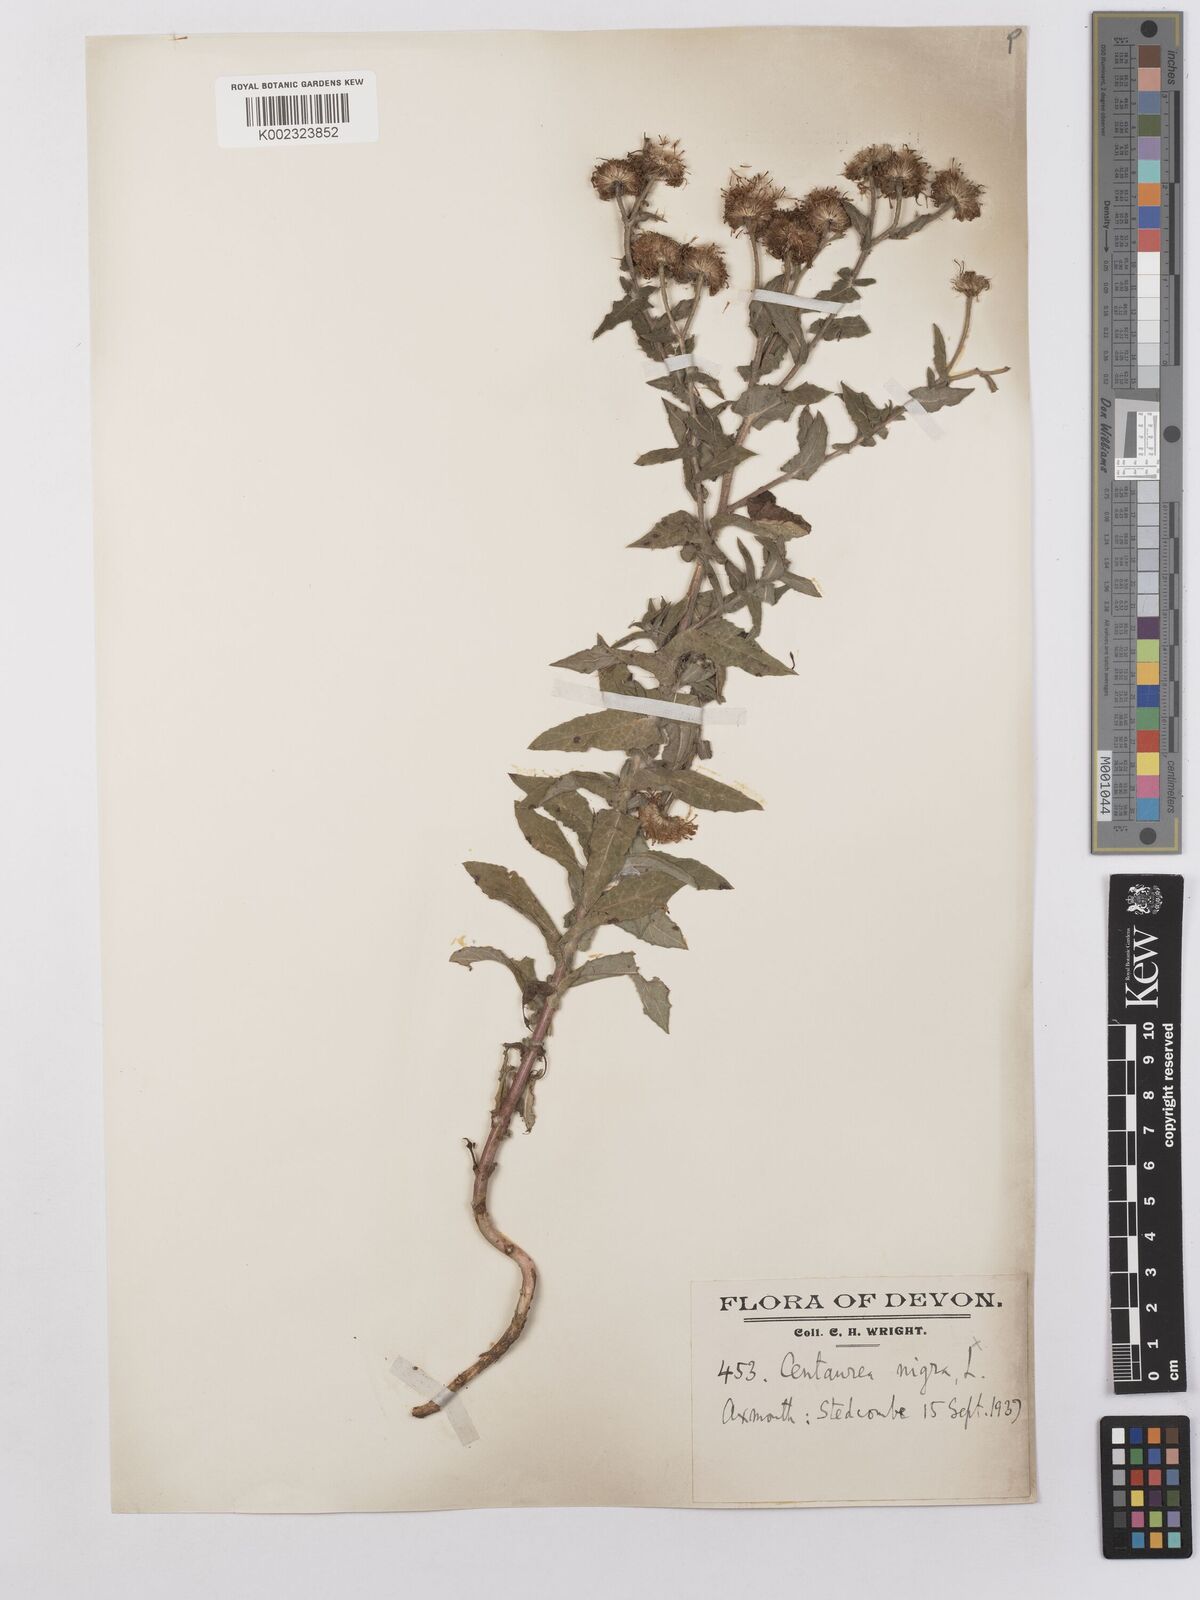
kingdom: Plantae
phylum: Tracheophyta
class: Magnoliopsida
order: Asterales
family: Asteraceae
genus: Pulicaria
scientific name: Pulicaria dysenterica
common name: Common fleabane
